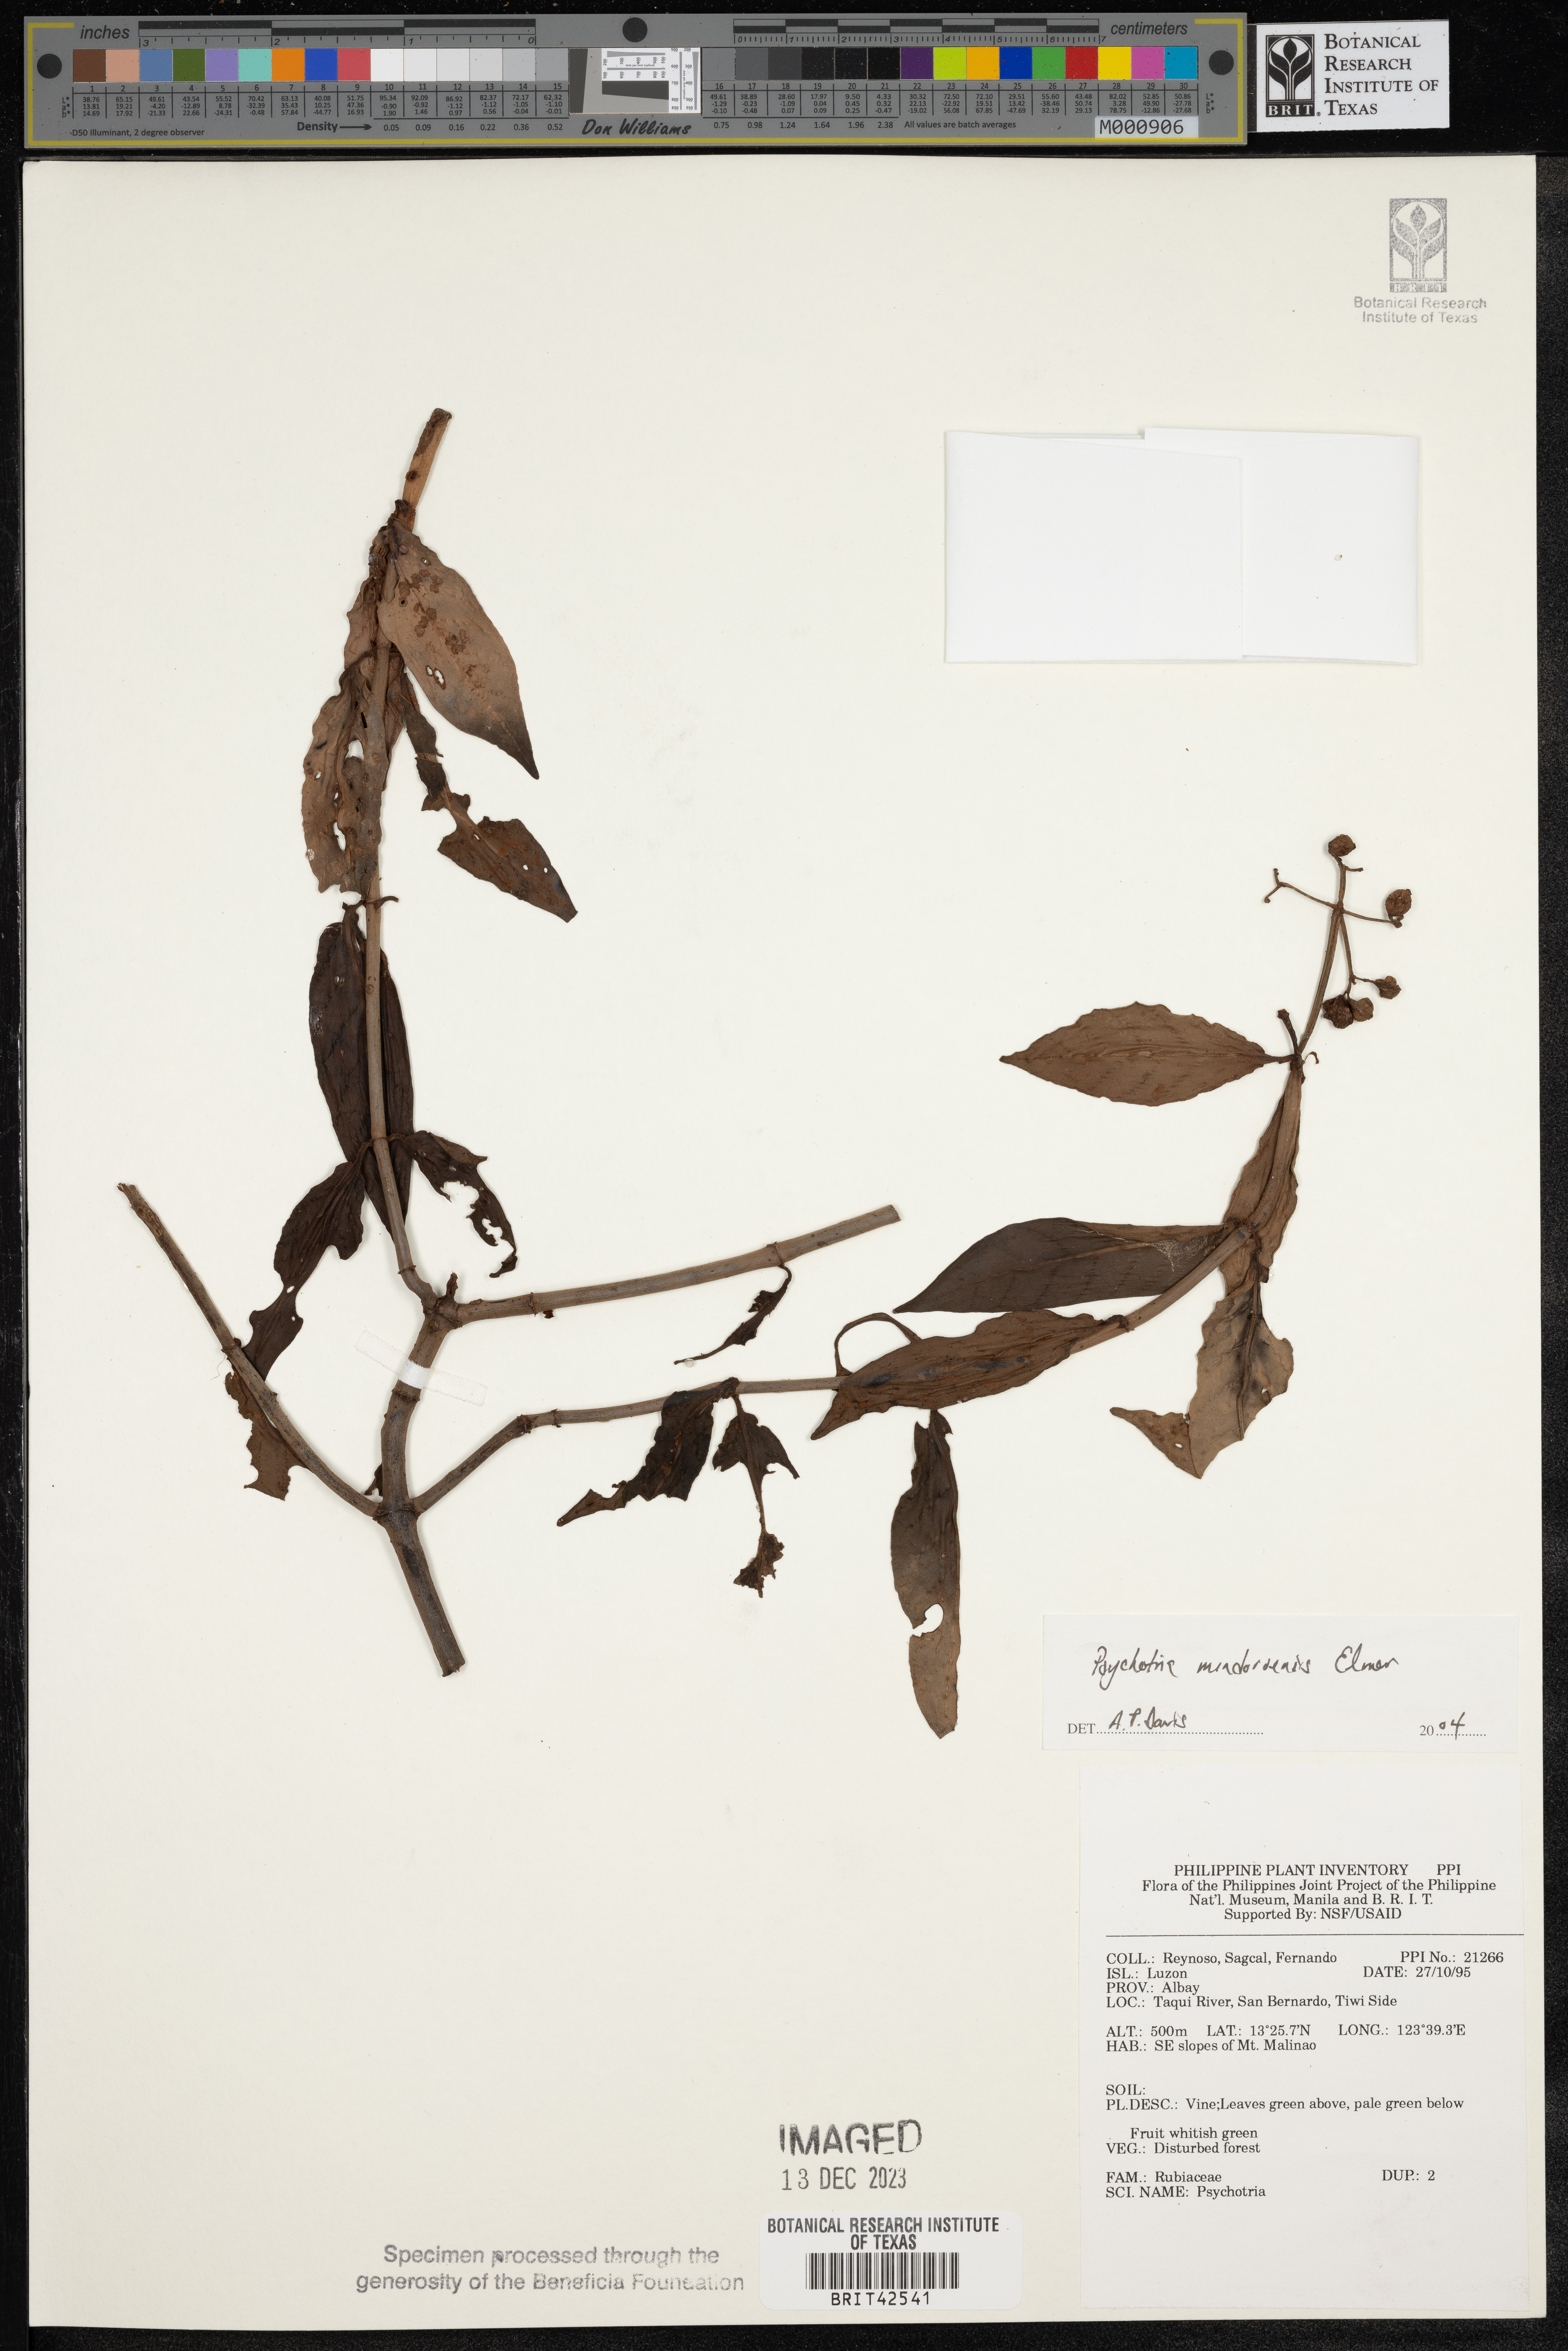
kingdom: Plantae
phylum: Tracheophyta
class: Magnoliopsida
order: Gentianales
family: Rubiaceae
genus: Psychotria
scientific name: Psychotria mindoroensis
